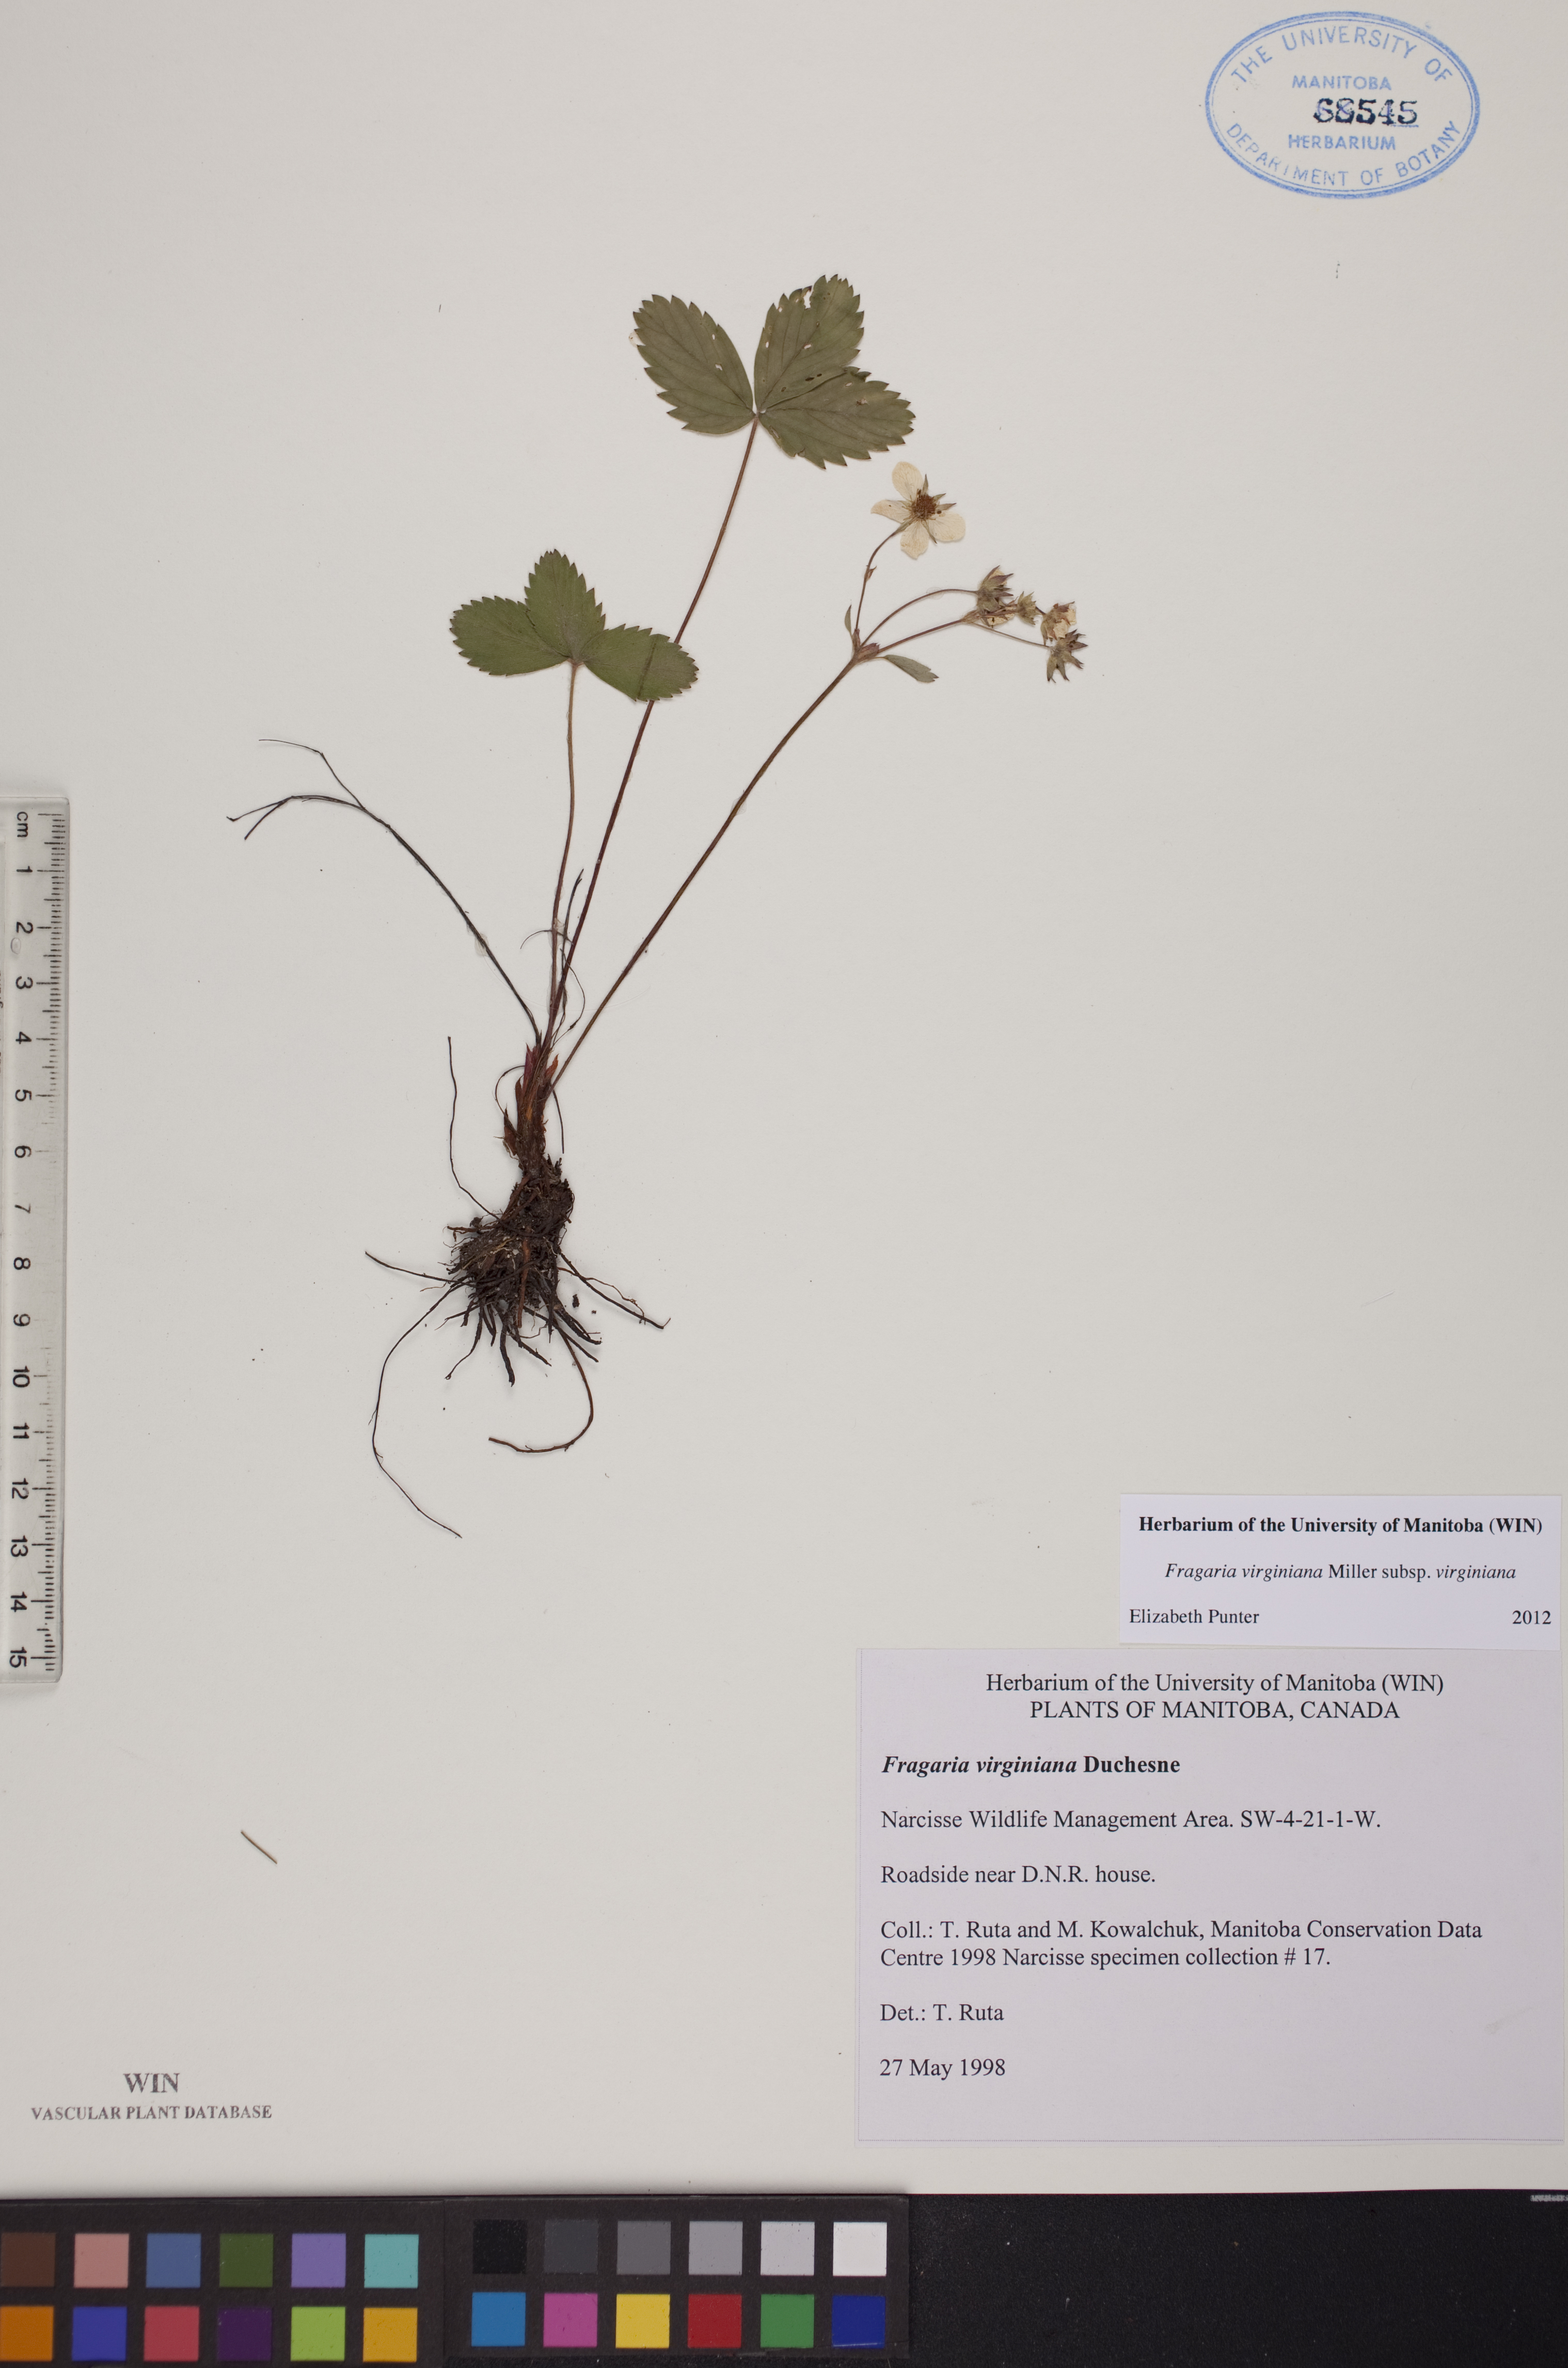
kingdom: Plantae
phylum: Tracheophyta
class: Magnoliopsida
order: Rosales
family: Rosaceae
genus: Fragaria
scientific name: Fragaria virginiana
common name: Thickleaved wild strawberry
